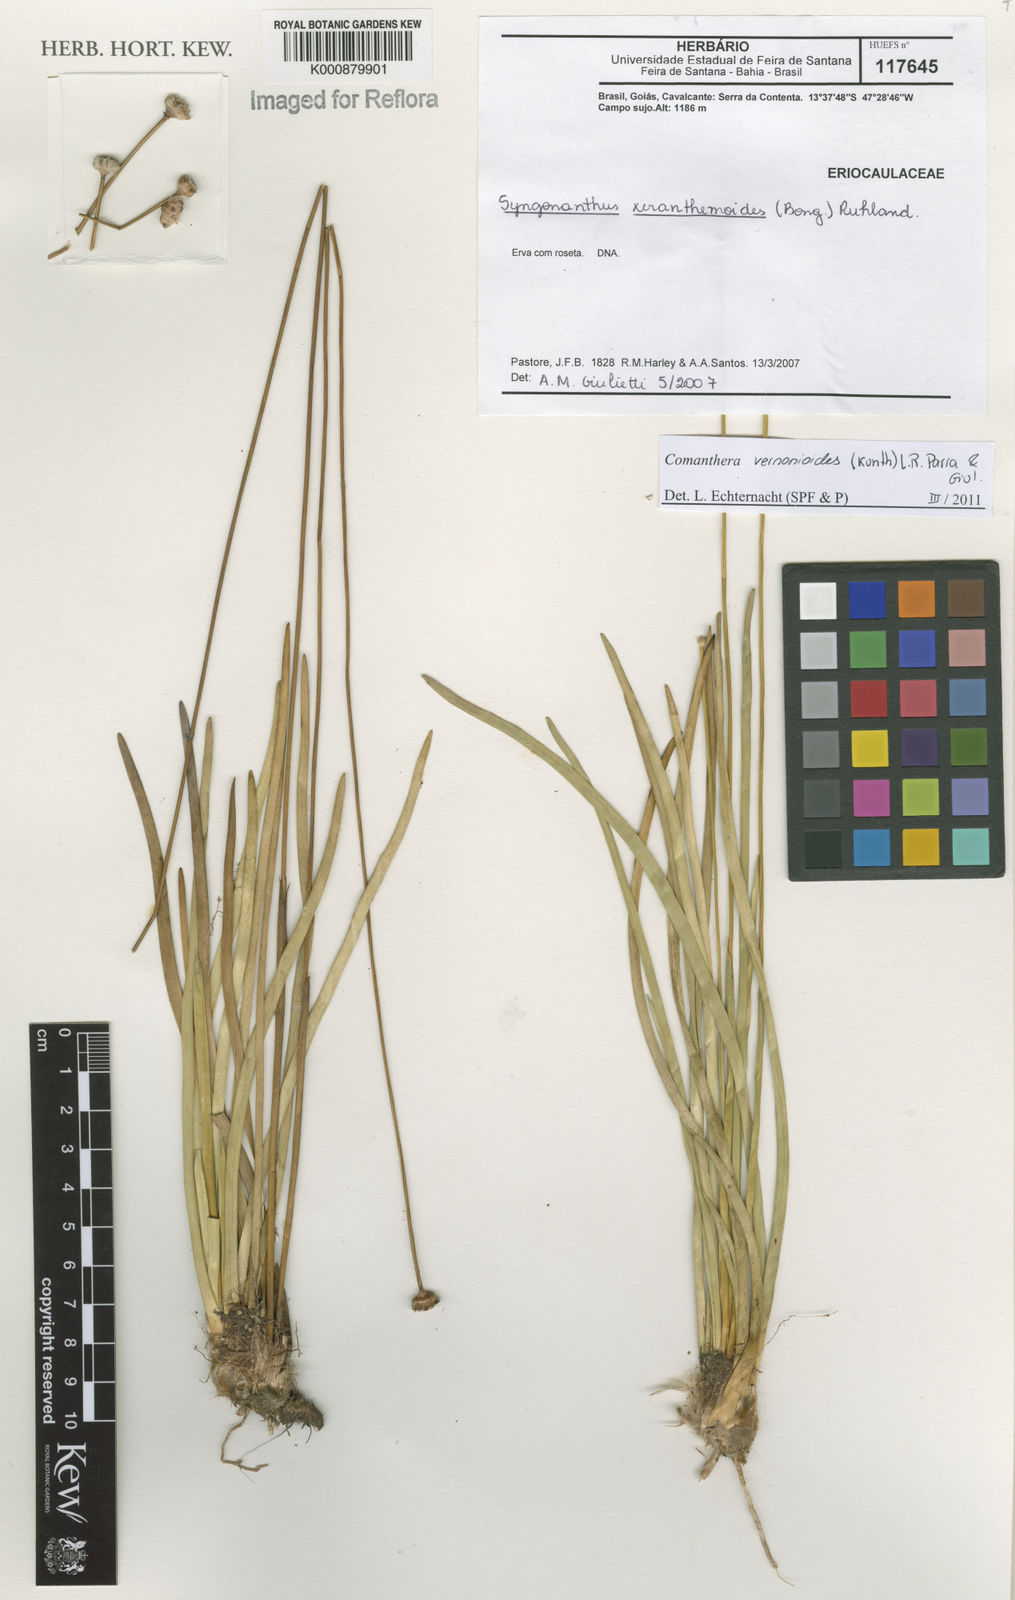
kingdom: Plantae
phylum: Tracheophyta
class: Liliopsida
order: Poales
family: Eriocaulaceae
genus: Comanthera
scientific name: Comanthera centauroides
